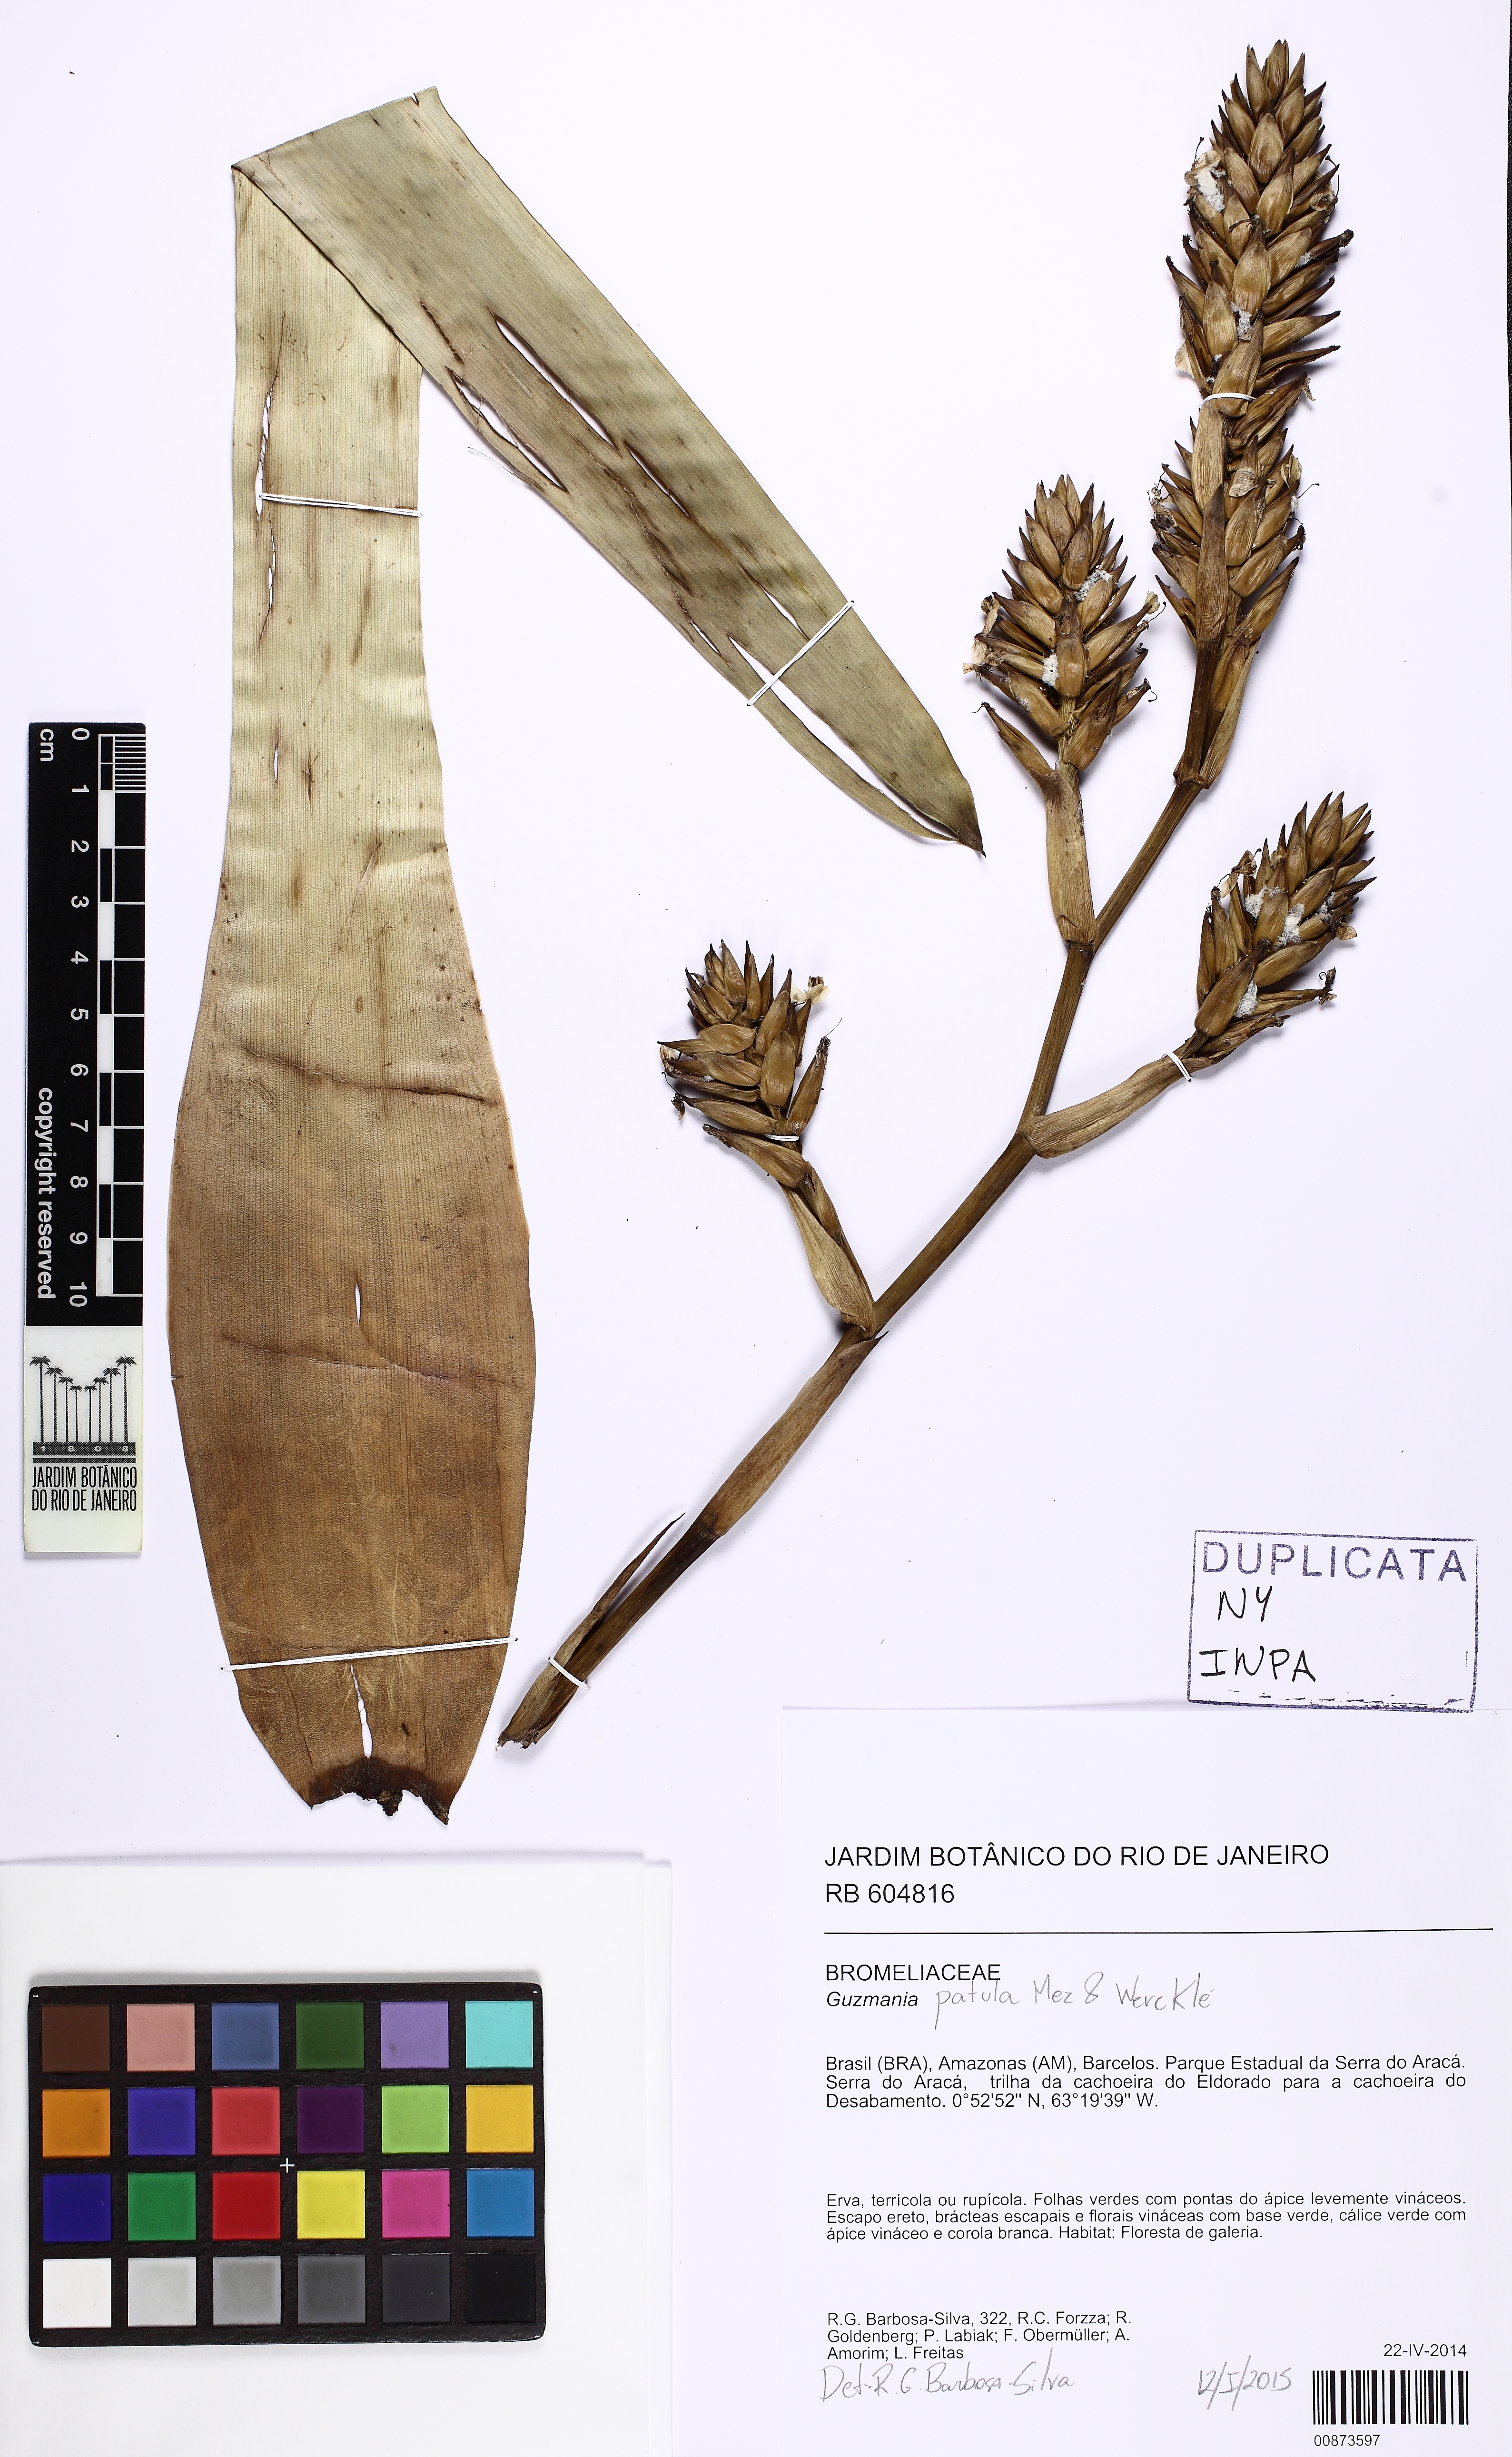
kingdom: Plantae
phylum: Tracheophyta
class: Liliopsida
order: Poales
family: Bromeliaceae
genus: Guzmania
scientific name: Guzmania patula
